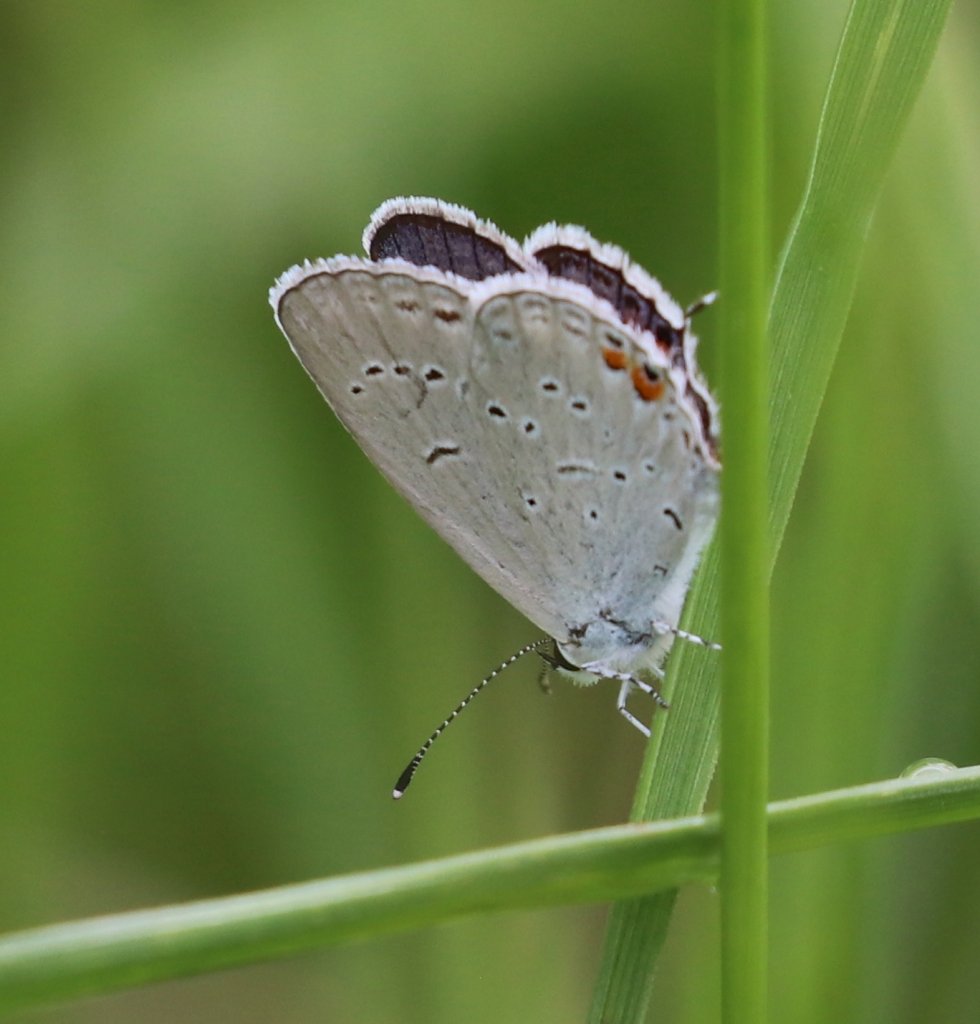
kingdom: Animalia
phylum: Arthropoda
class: Insecta
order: Lepidoptera
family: Lycaenidae
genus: Elkalyce
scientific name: Elkalyce comyntas
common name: Eastern Tailed-Blue
